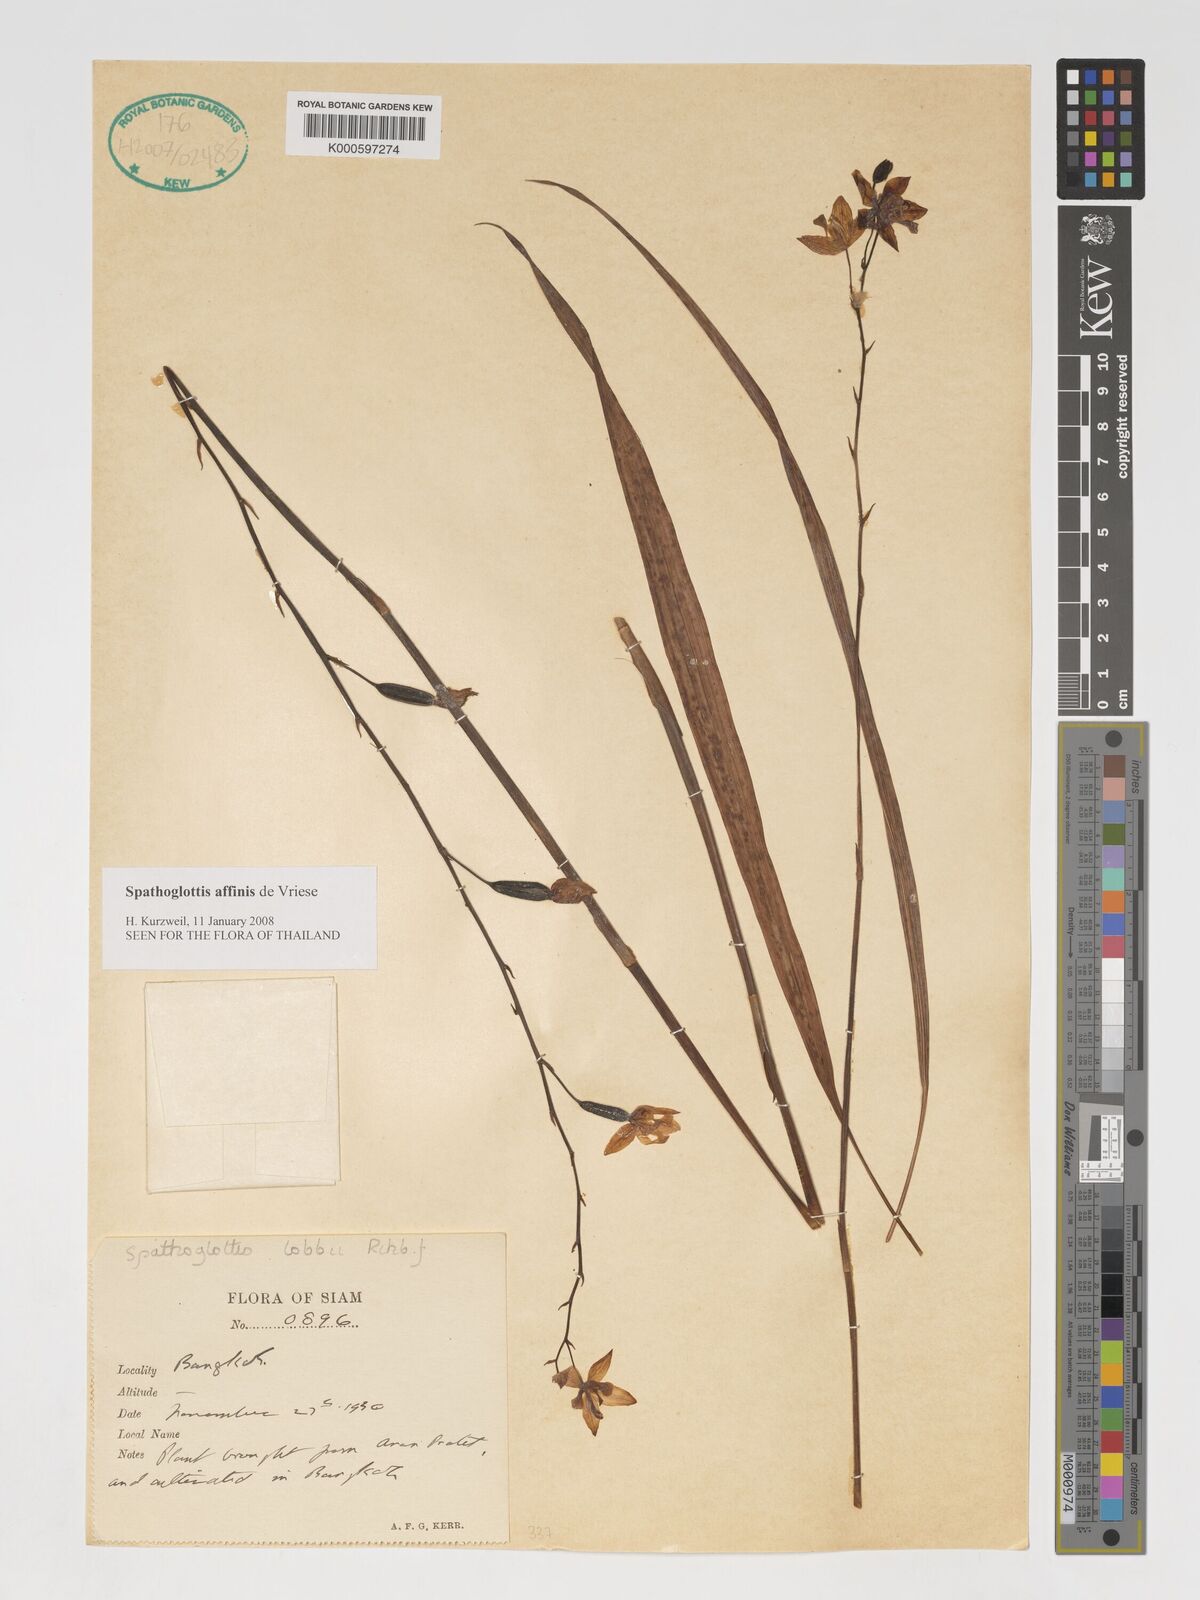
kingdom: Plantae
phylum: Tracheophyta
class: Liliopsida
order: Asparagales
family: Orchidaceae
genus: Spathoglottis
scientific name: Spathoglottis affinis
